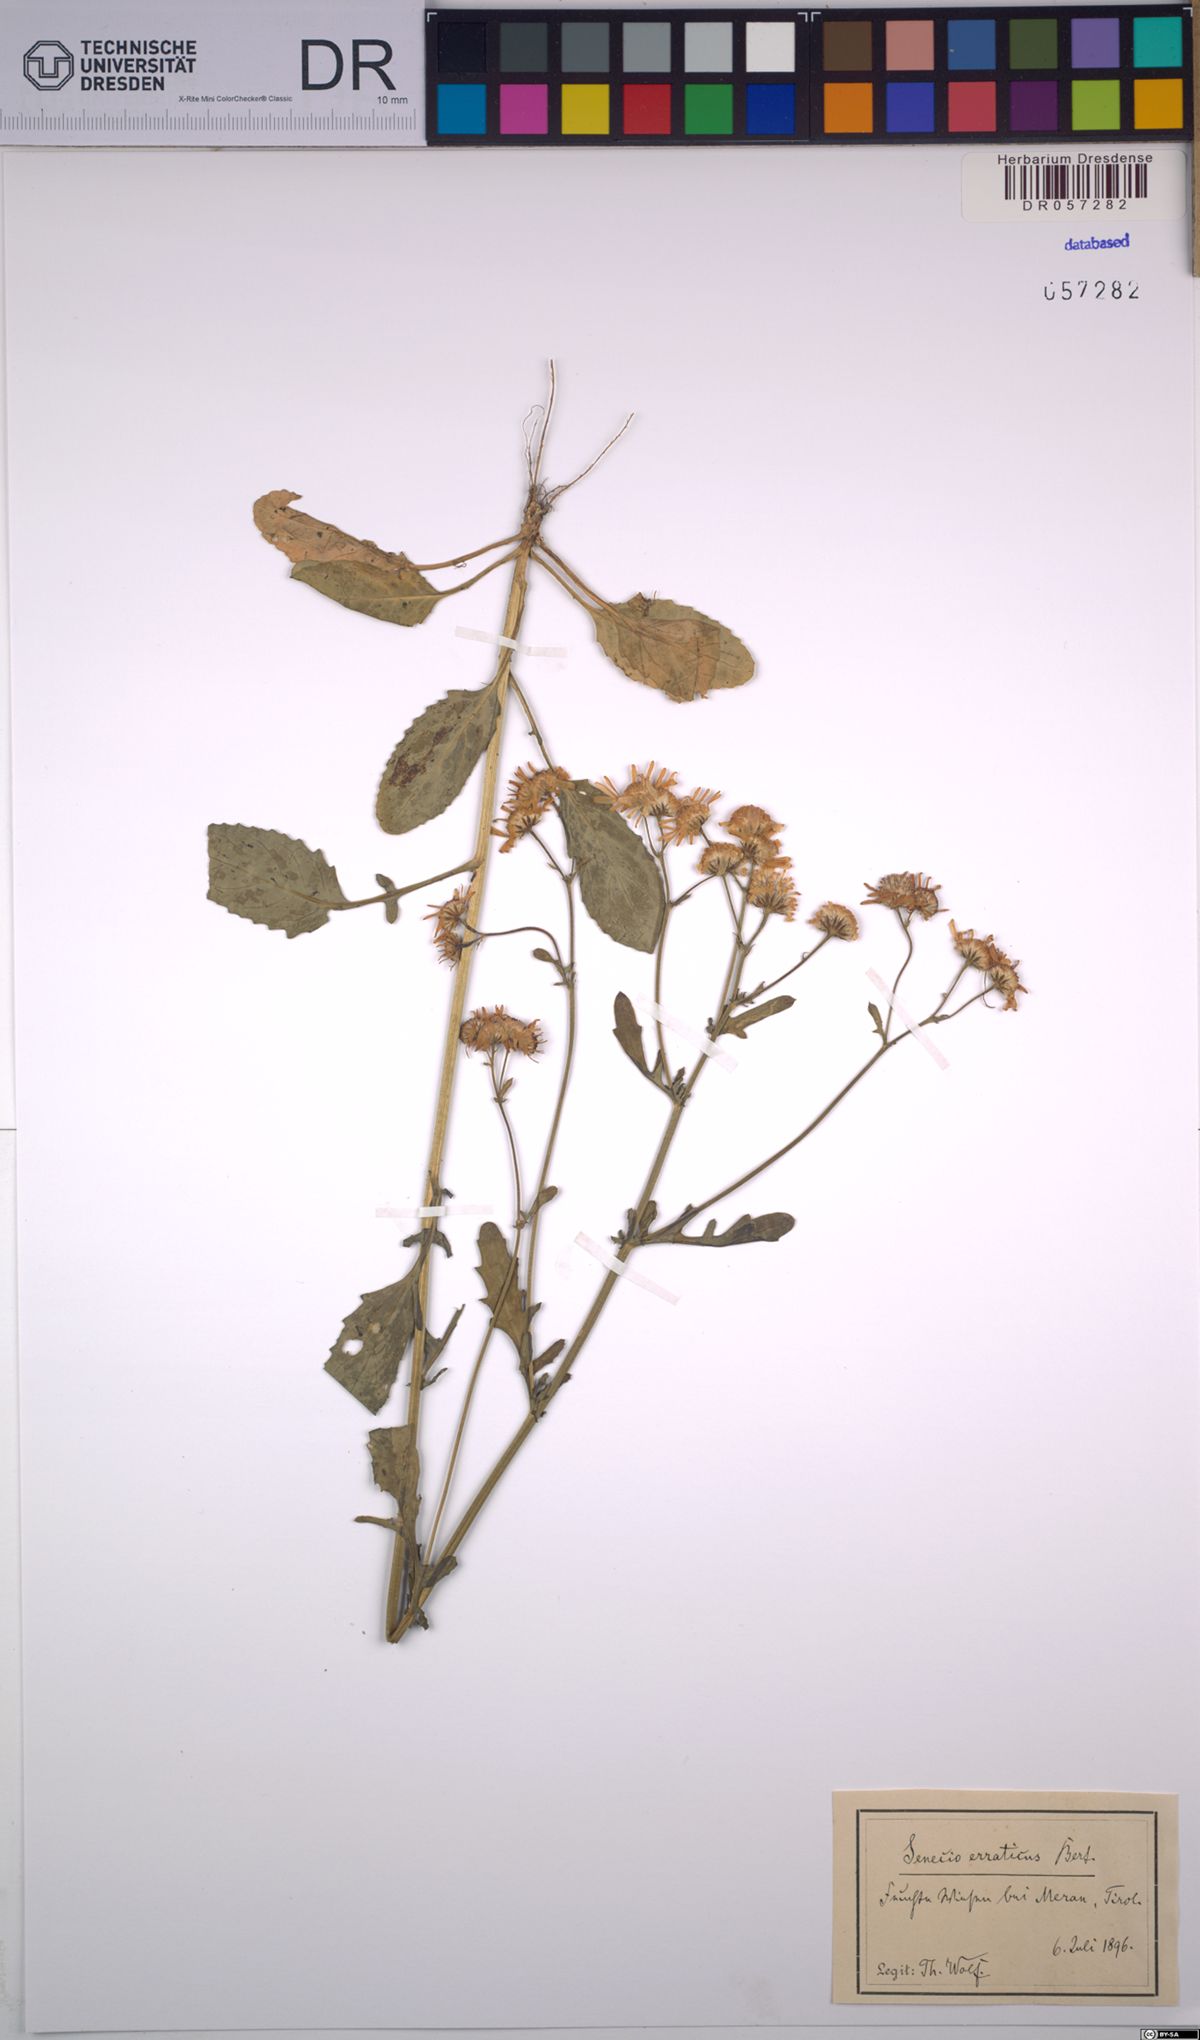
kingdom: Plantae
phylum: Tracheophyta
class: Magnoliopsida
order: Asterales
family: Asteraceae
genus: Jacobaea
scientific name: Jacobaea erratica
